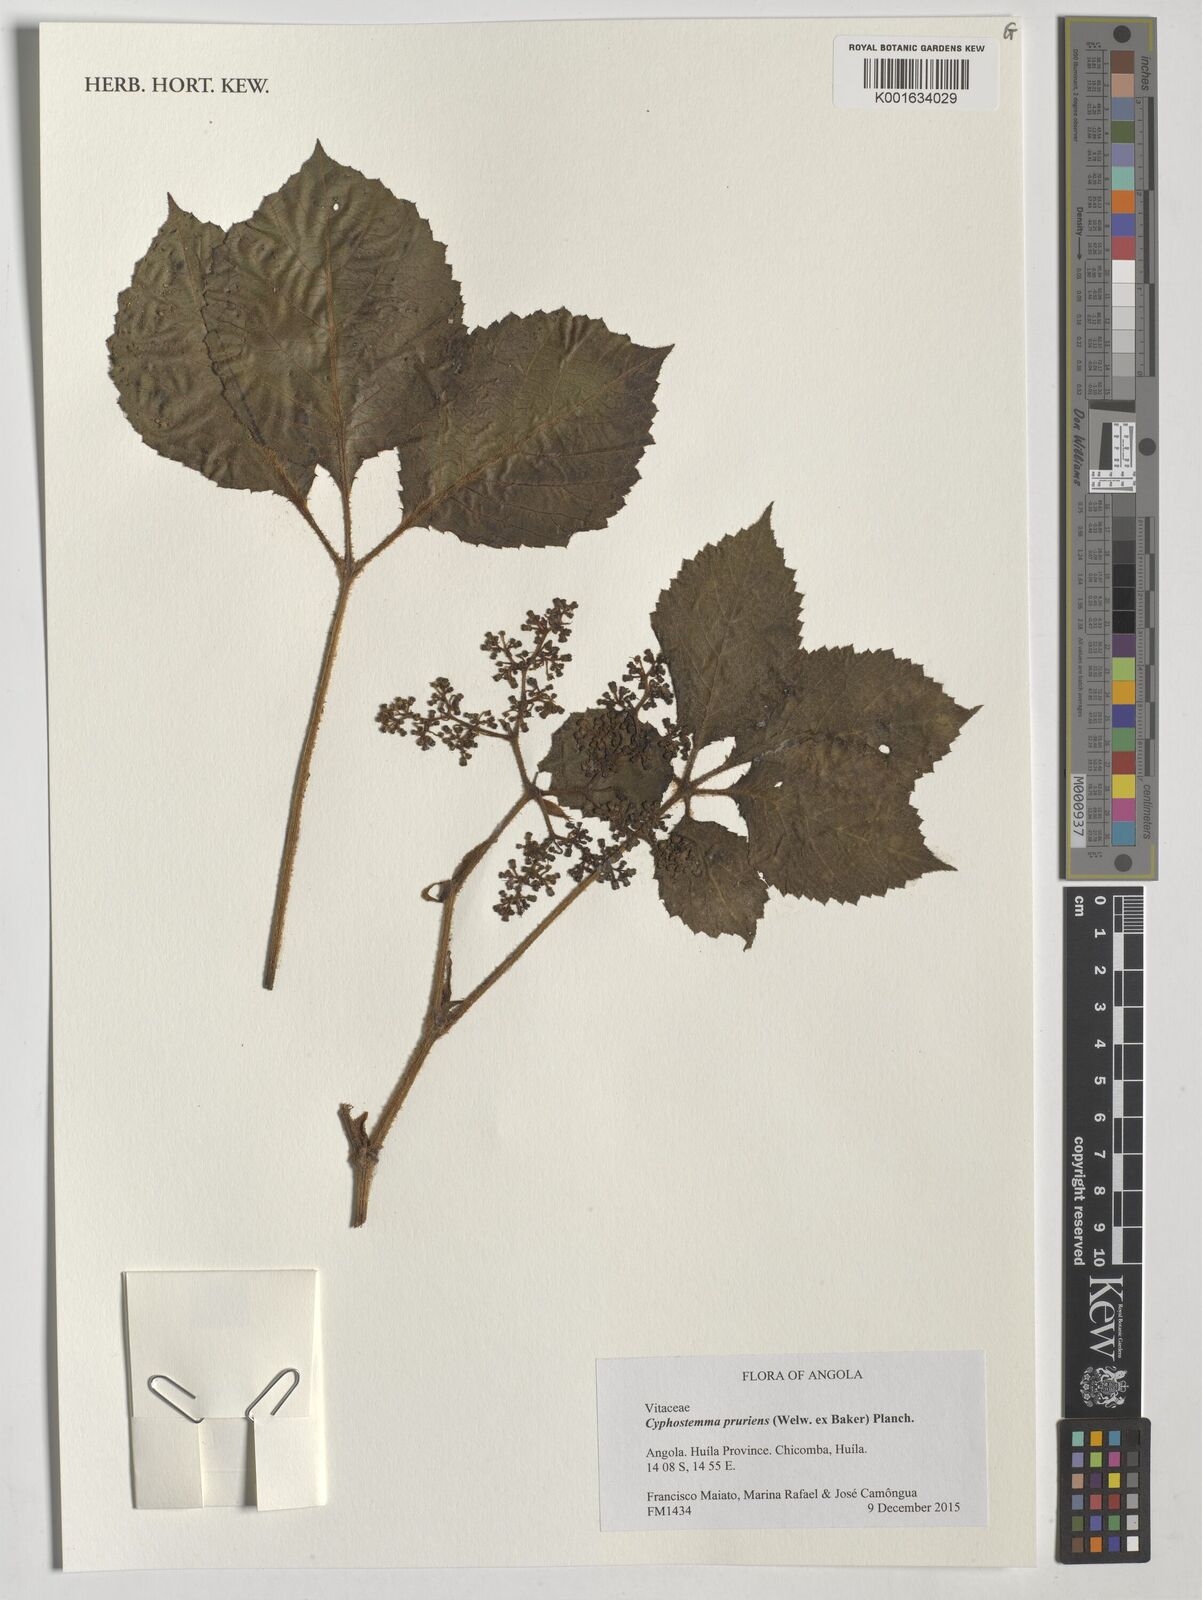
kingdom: Plantae
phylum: Tracheophyta
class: Magnoliopsida
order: Vitales
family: Vitaceae
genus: Cyphostemma
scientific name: Cyphostemma pruriens
